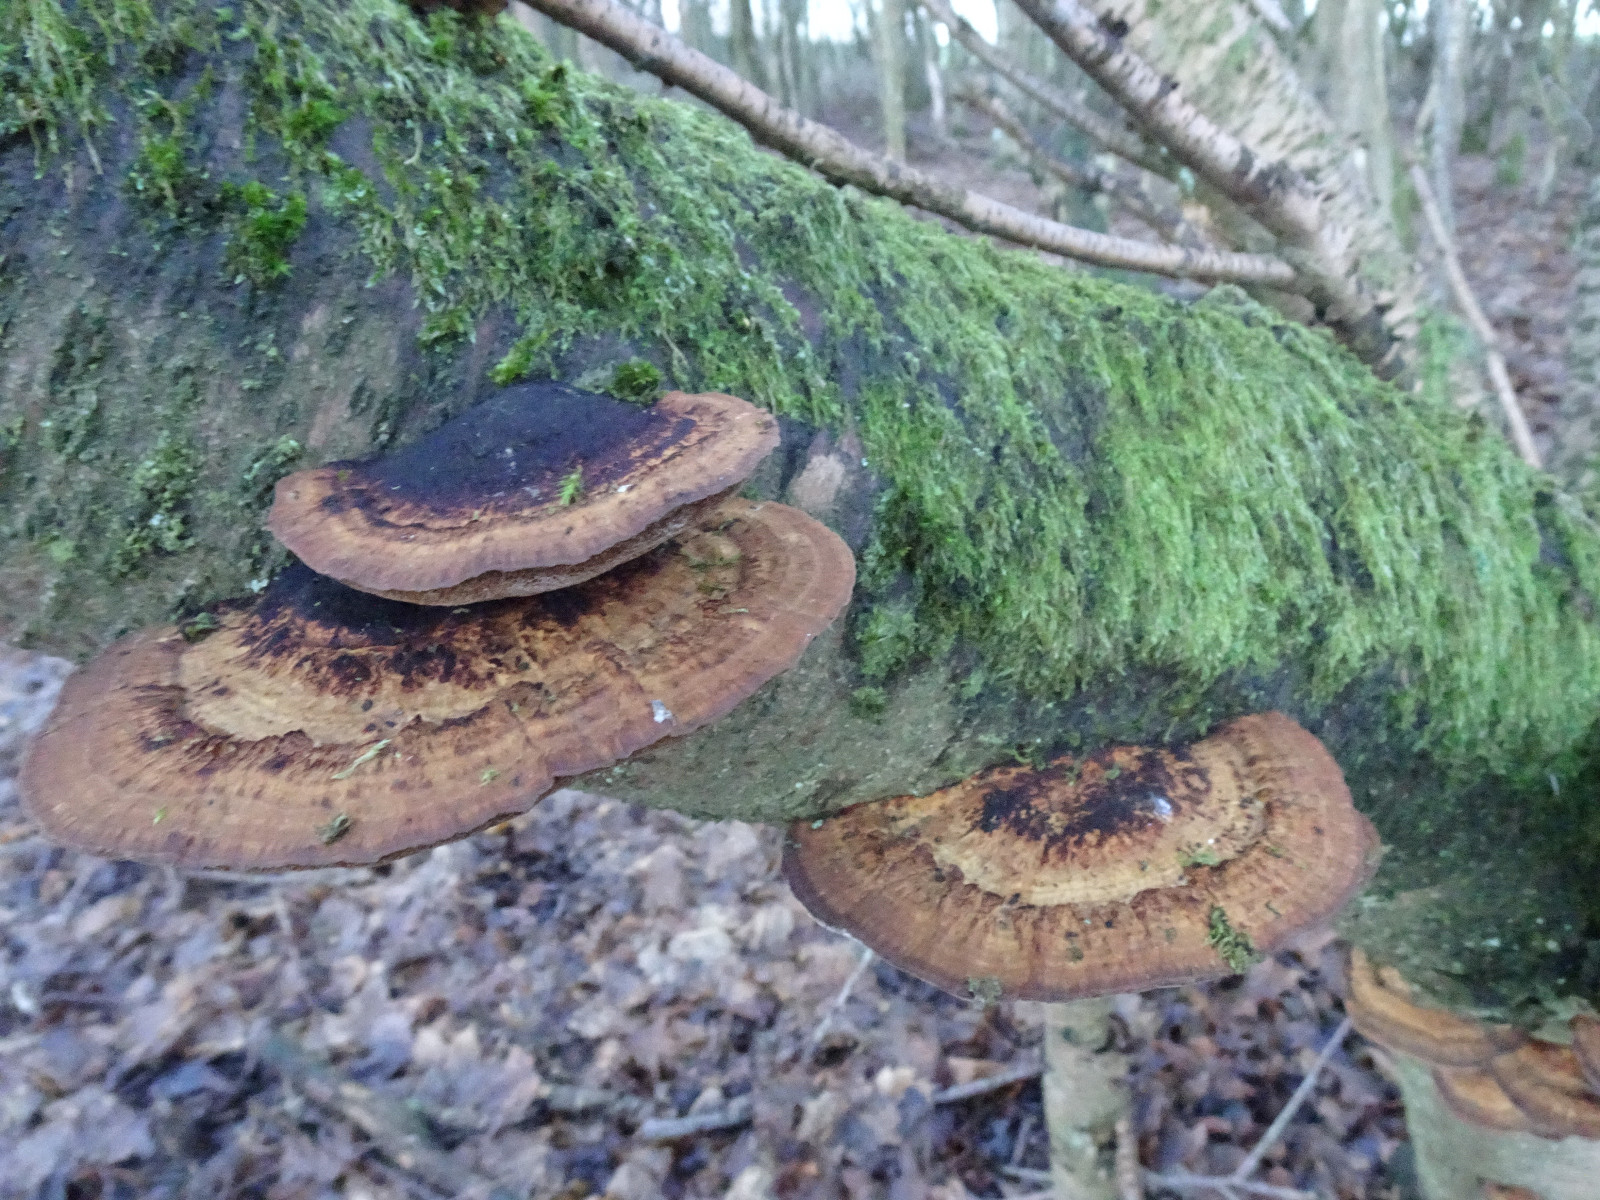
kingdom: Fungi
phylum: Basidiomycota
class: Agaricomycetes
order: Polyporales
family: Polyporaceae
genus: Daedaleopsis
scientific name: Daedaleopsis confragosa
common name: rødmende læderporesvamp
